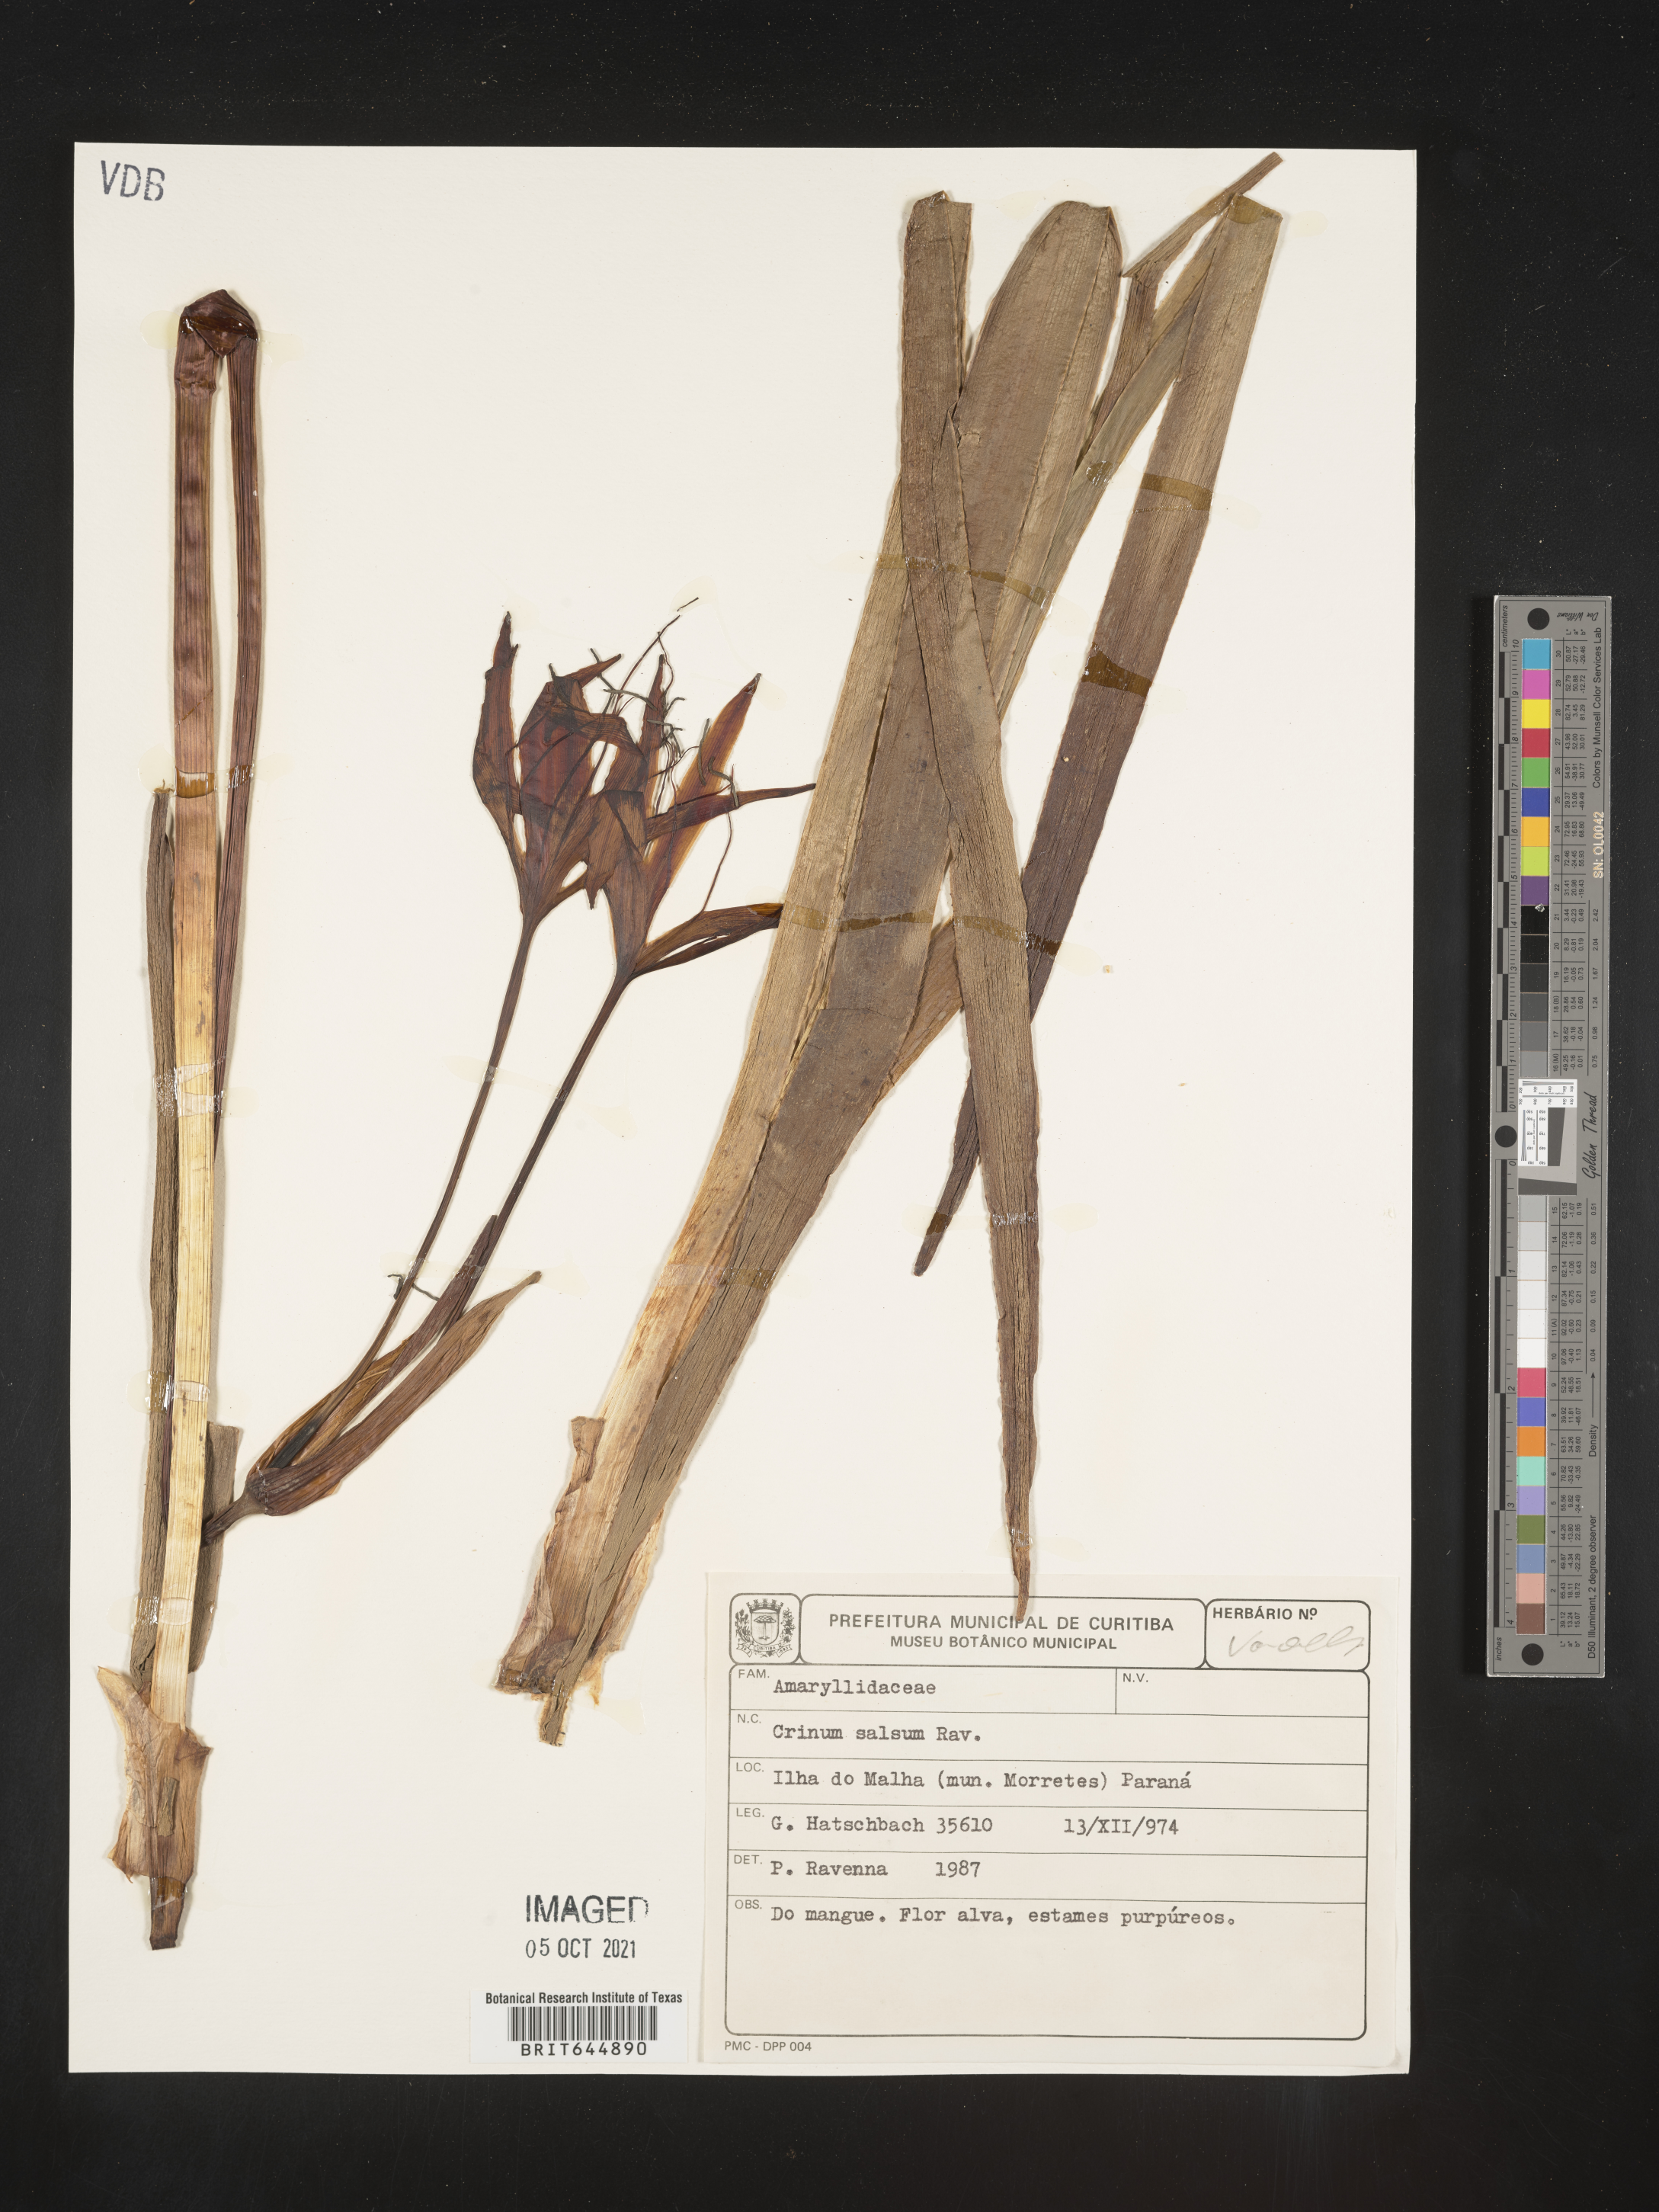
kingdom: Plantae
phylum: Tracheophyta
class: Liliopsida
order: Asparagales
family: Amaryllidaceae
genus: Crinum
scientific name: Crinum salsum
